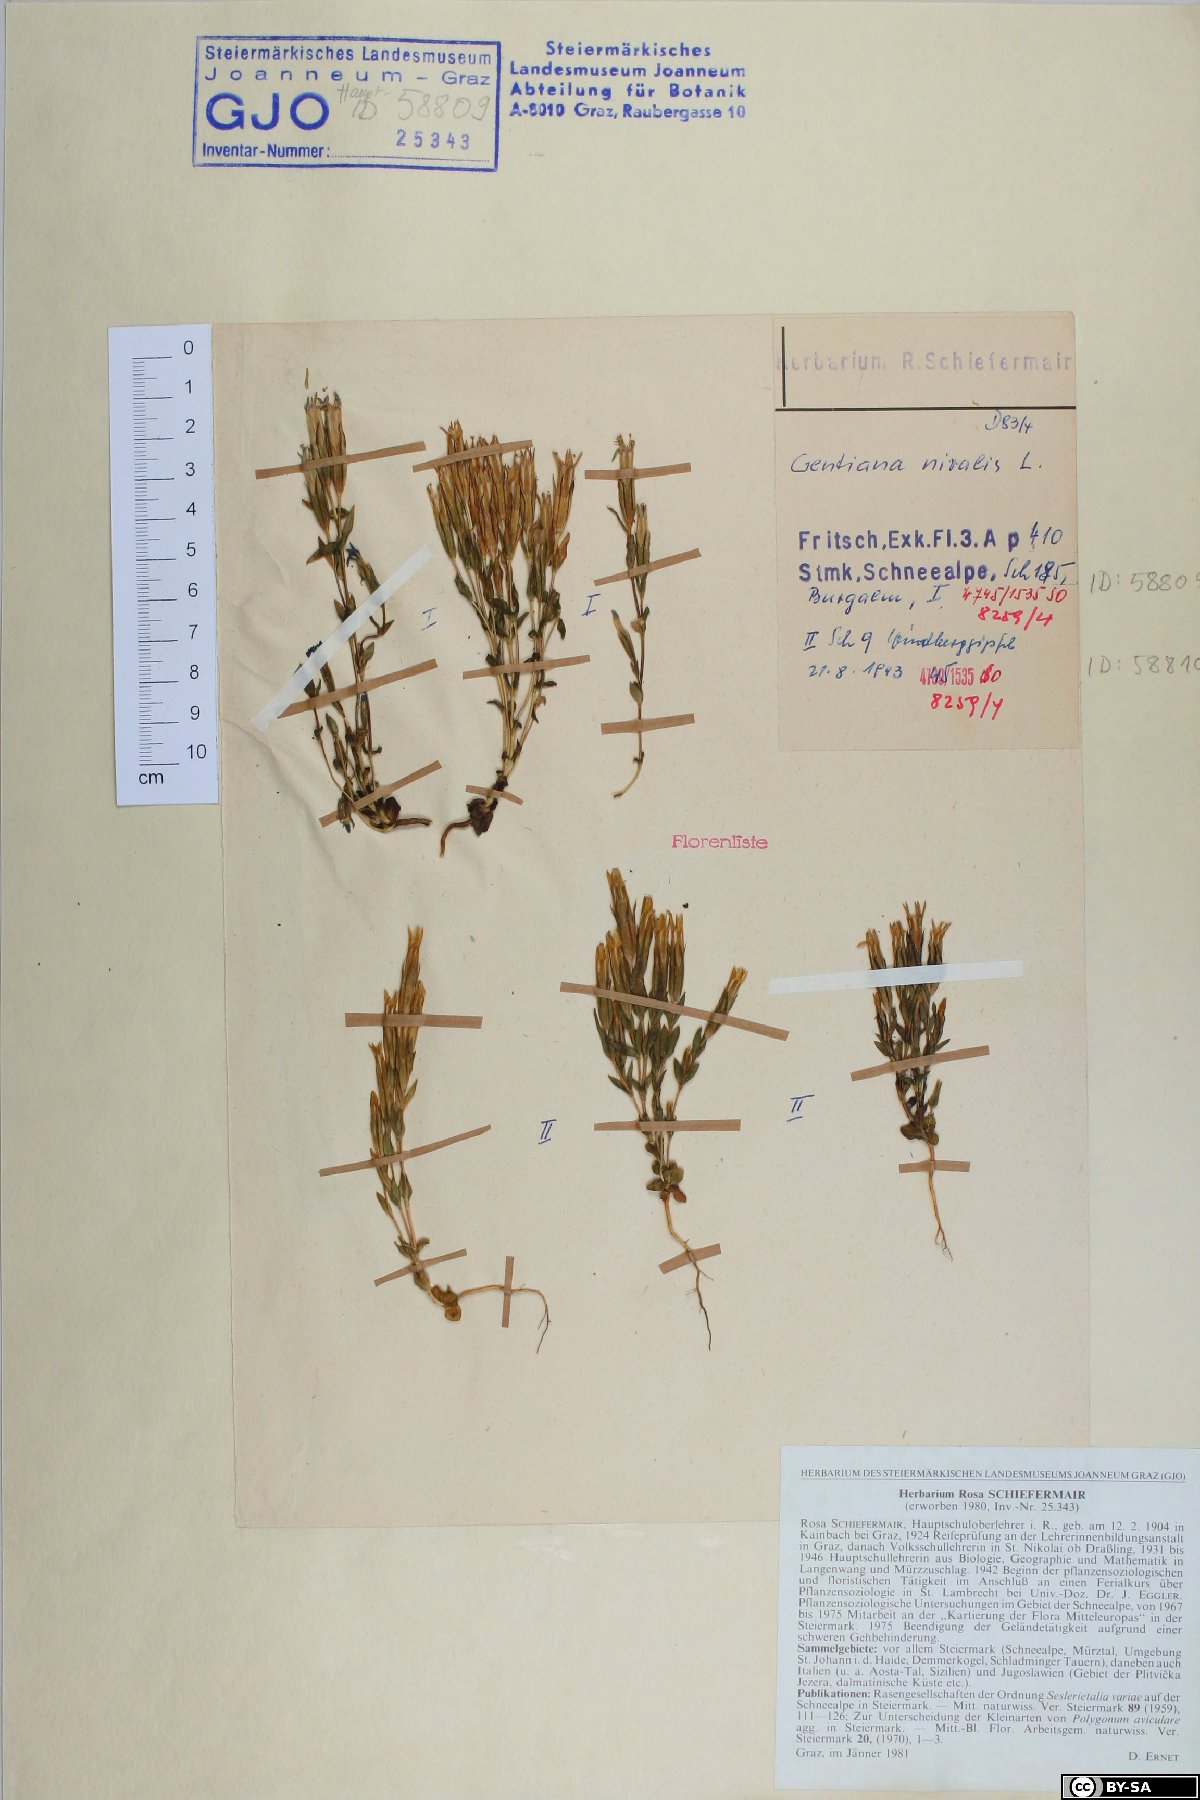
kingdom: Plantae
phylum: Tracheophyta
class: Magnoliopsida
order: Gentianales
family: Gentianaceae
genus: Gentiana
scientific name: Gentiana nivalis
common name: Alpine gentian
